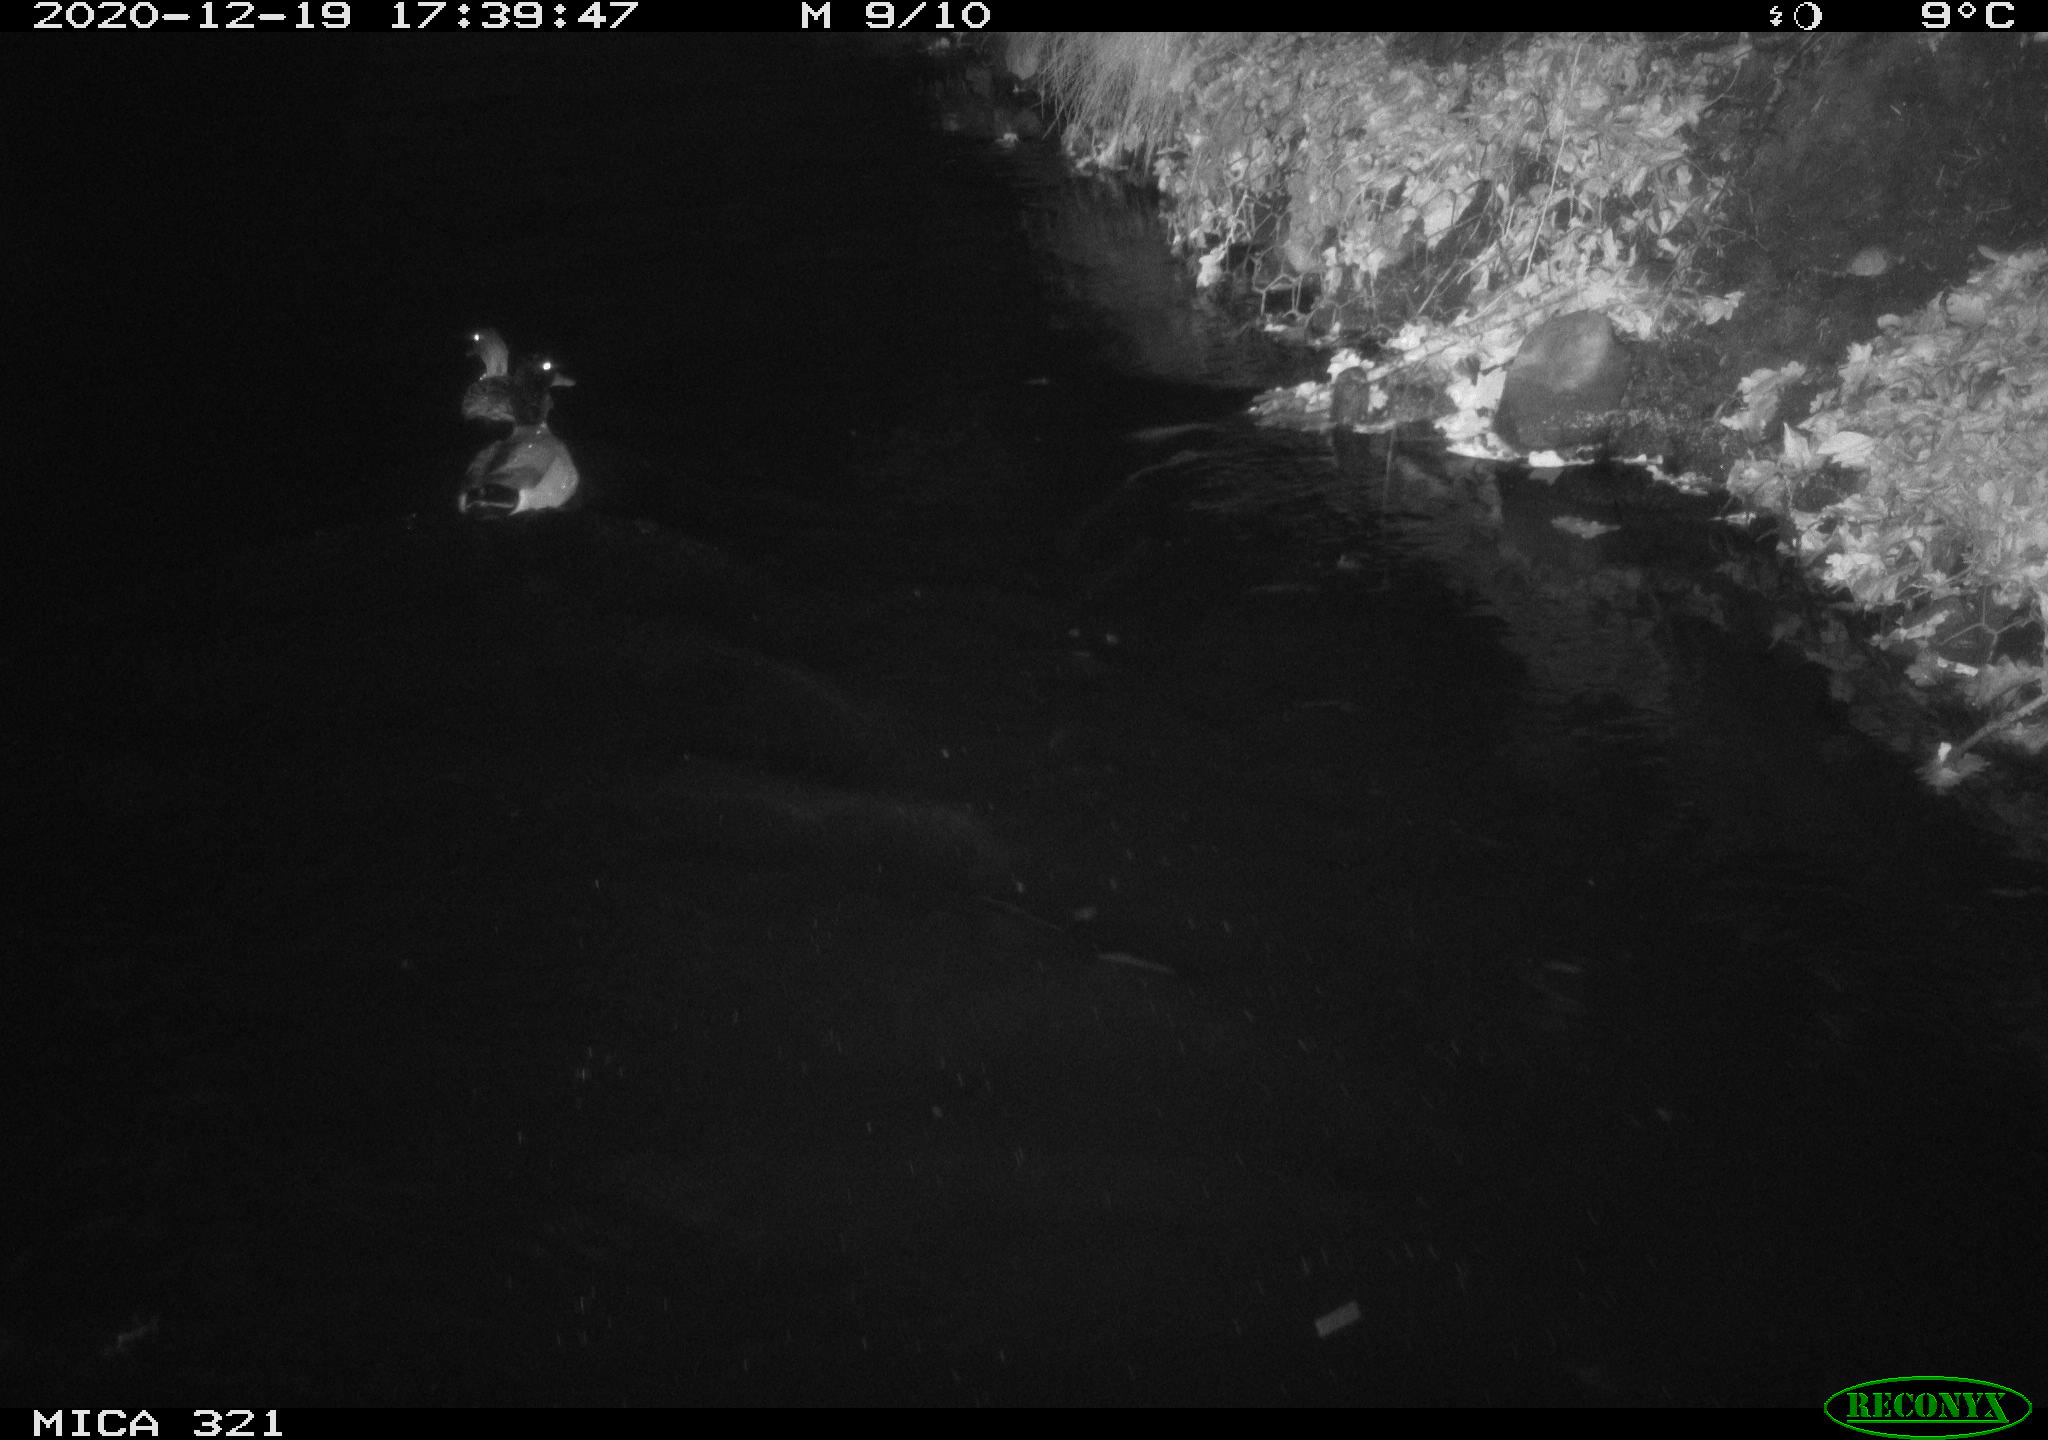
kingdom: Animalia
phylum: Chordata
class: Aves
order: Anseriformes
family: Anatidae
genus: Anas
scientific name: Anas platyrhynchos
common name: Mallard
